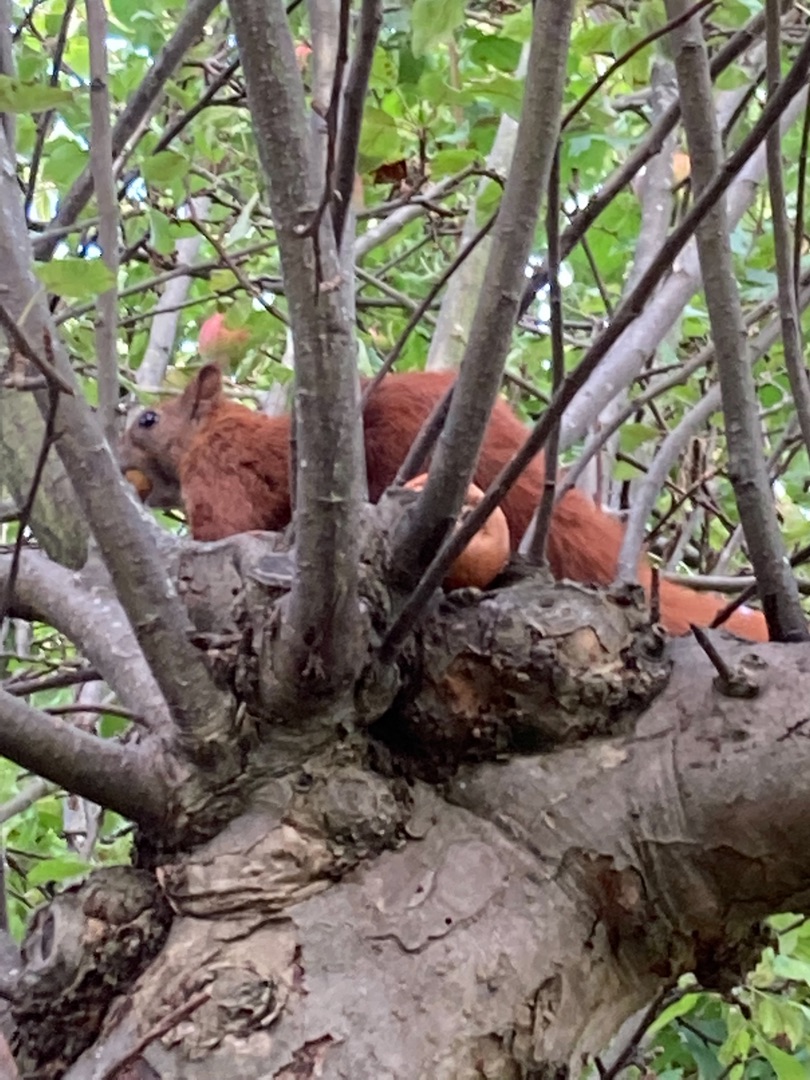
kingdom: Animalia
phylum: Chordata
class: Mammalia
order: Rodentia
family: Sciuridae
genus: Sciurus
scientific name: Sciurus vulgaris
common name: Egern
